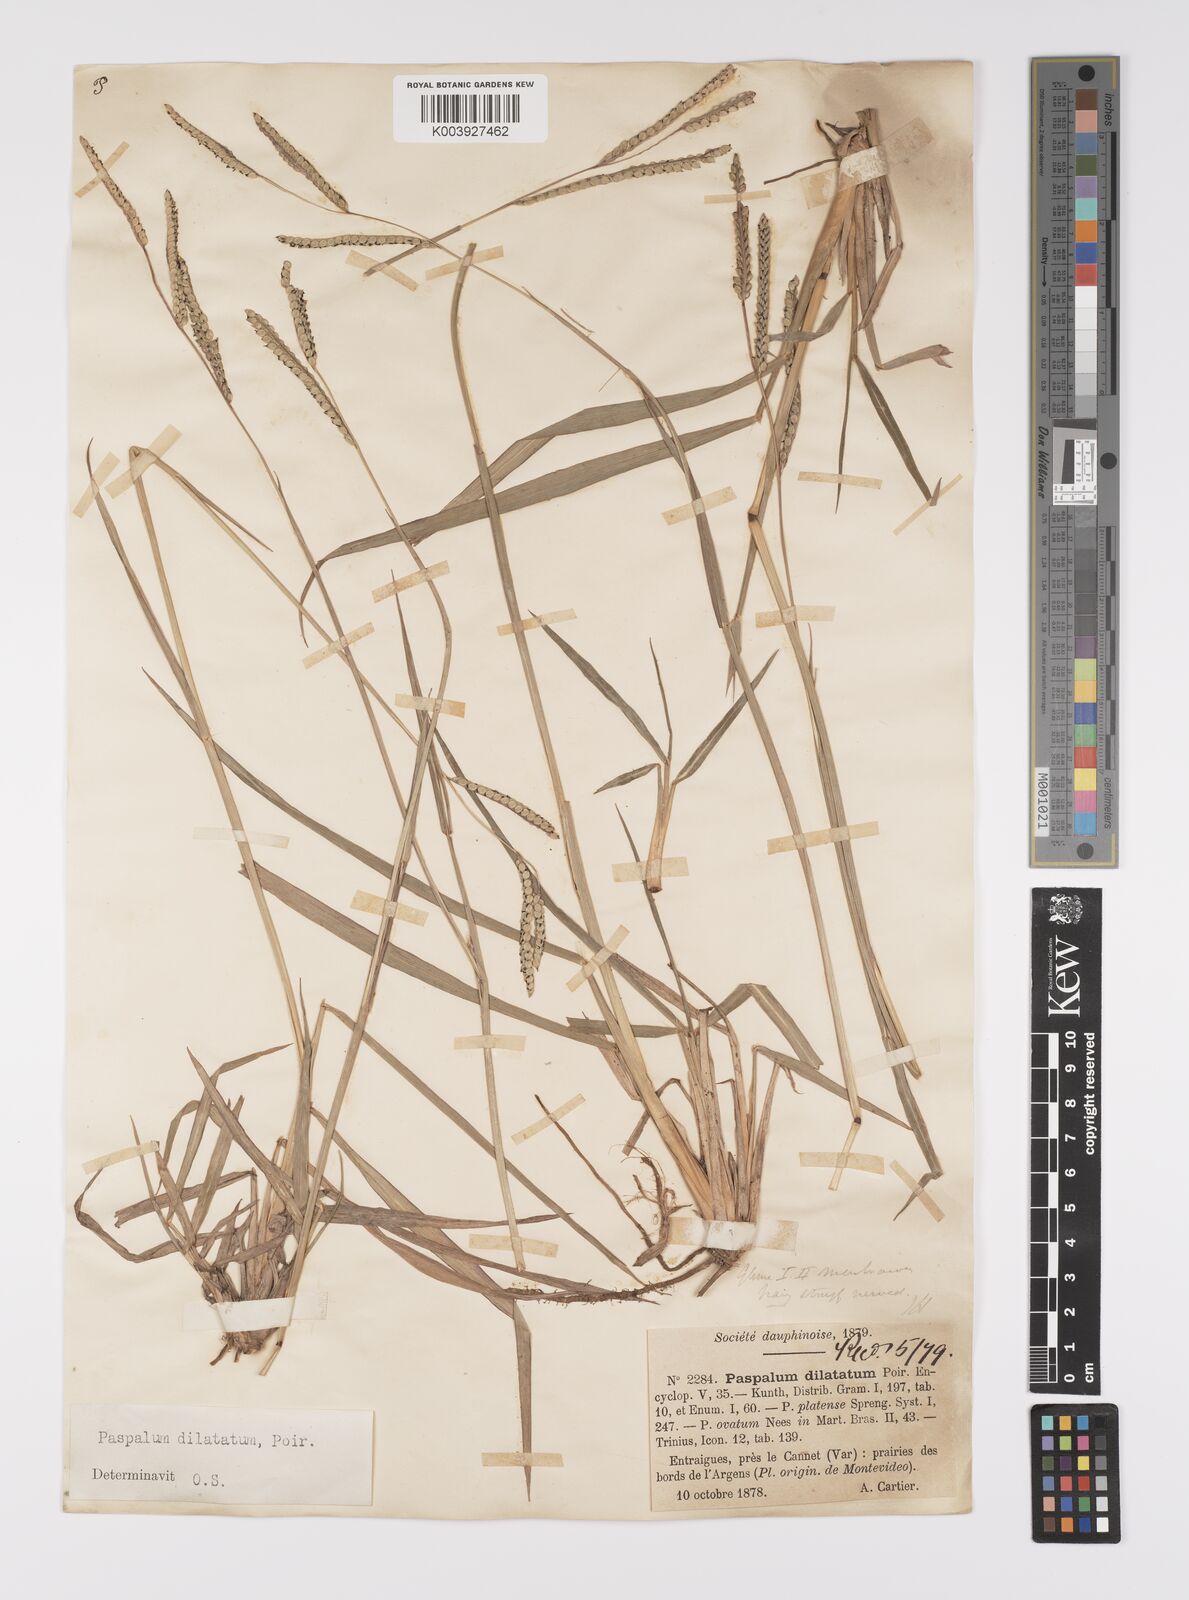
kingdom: Plantae
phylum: Tracheophyta
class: Liliopsida
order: Poales
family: Poaceae
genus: Paspalum
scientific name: Paspalum dilatatum
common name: Dallisgrass
